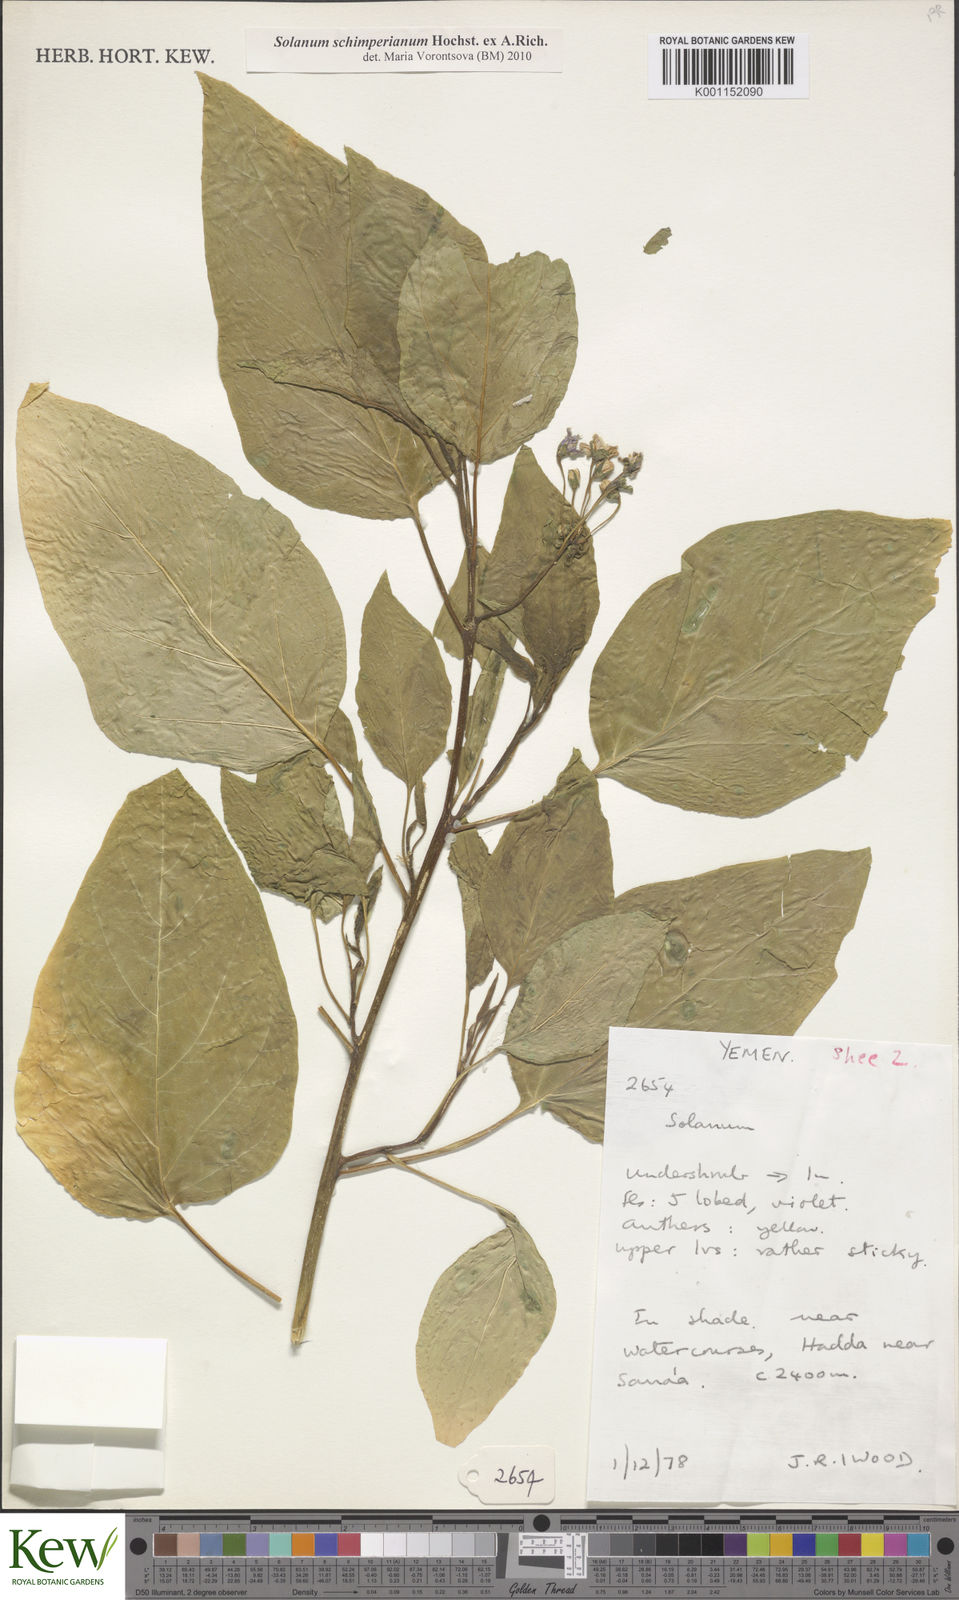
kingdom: Plantae
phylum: Tracheophyta
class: Magnoliopsida
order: Solanales
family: Solanaceae
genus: Solanum
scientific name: Solanum schimperianum
